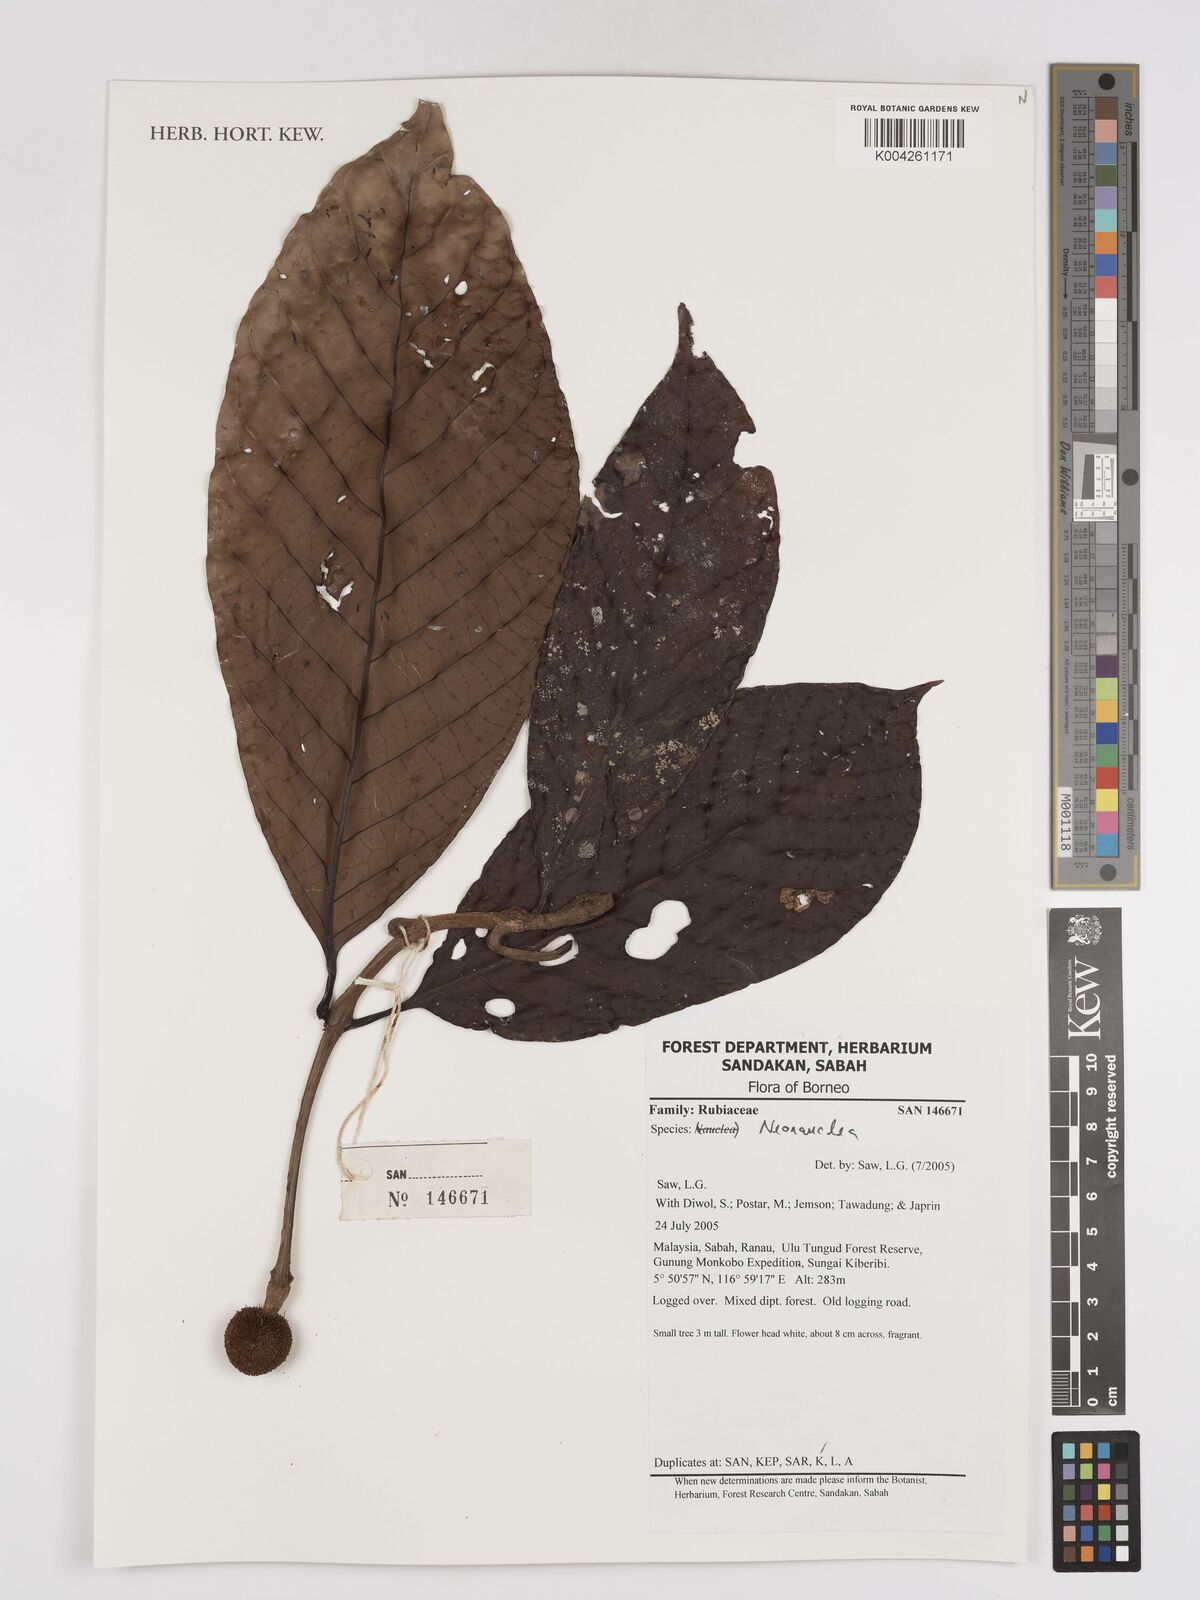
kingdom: Plantae
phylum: Tracheophyta
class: Magnoliopsida
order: Gentianales
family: Rubiaceae
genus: Neonauclea
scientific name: Neonauclea
